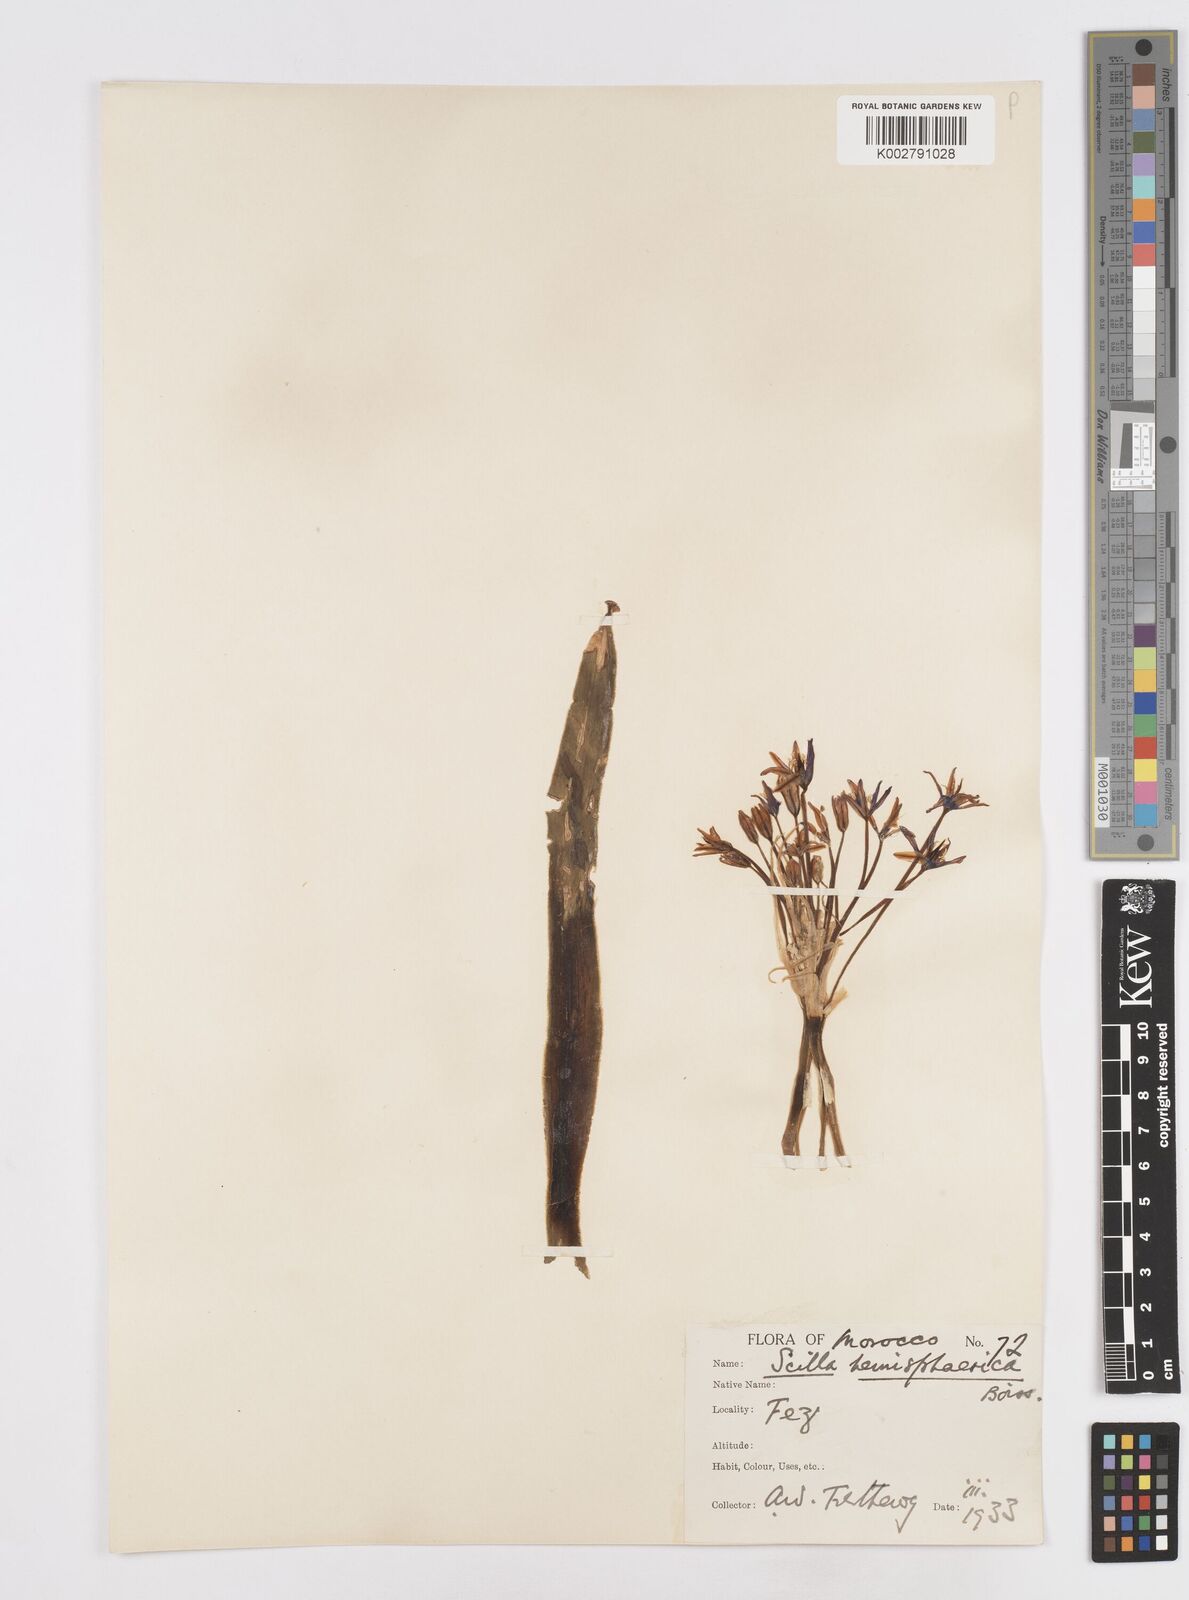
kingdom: Plantae
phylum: Tracheophyta
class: Liliopsida
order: Asparagales
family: Asparagaceae
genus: Scilla
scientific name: Scilla peruviana
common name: Portuguese squill
